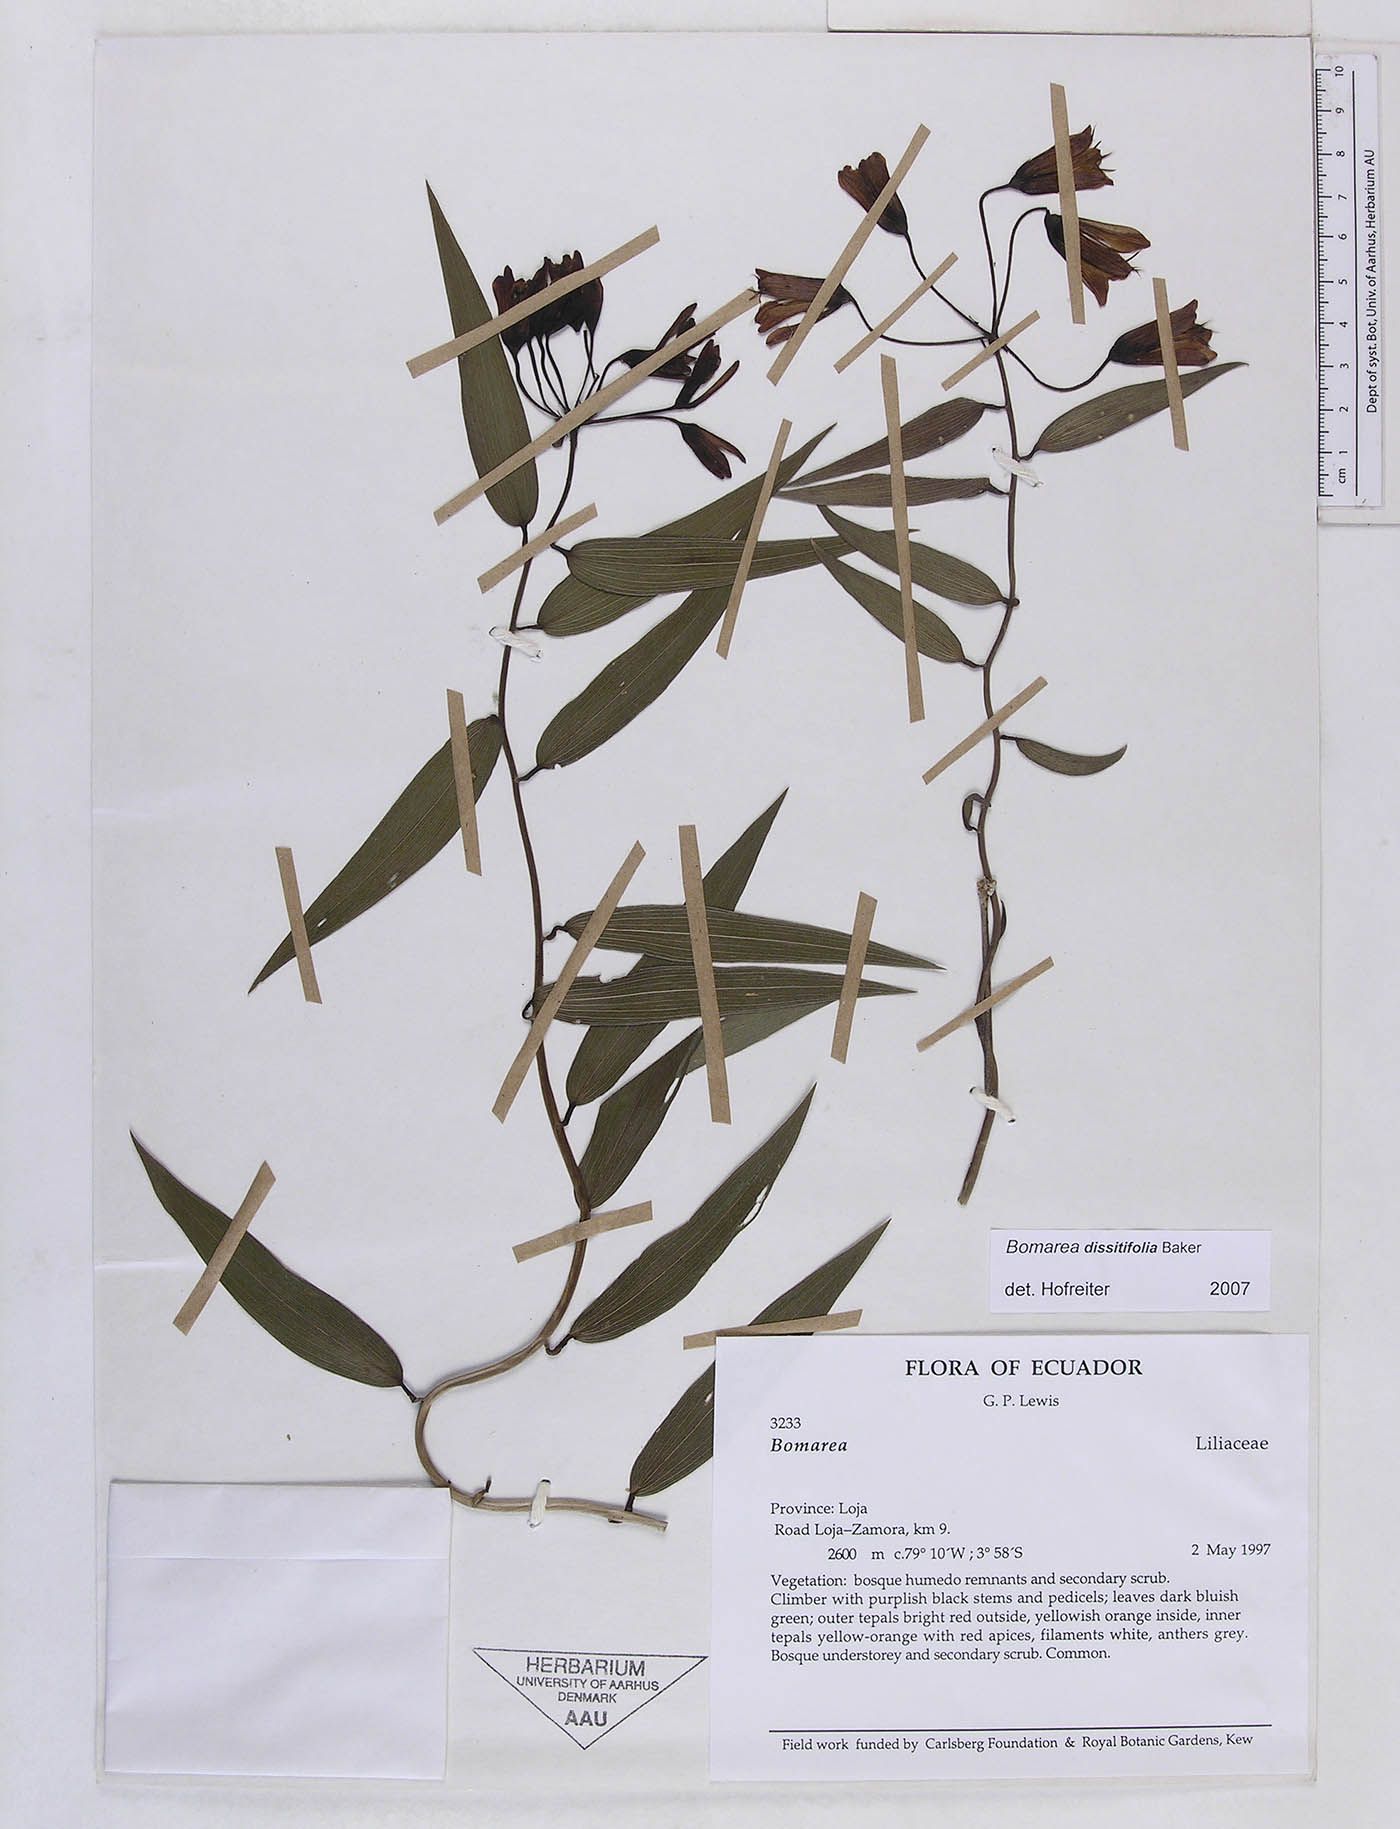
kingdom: Plantae
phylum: Tracheophyta
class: Liliopsida
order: Liliales
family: Alstroemeriaceae
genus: Bomarea
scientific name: Bomarea dissitifolia
